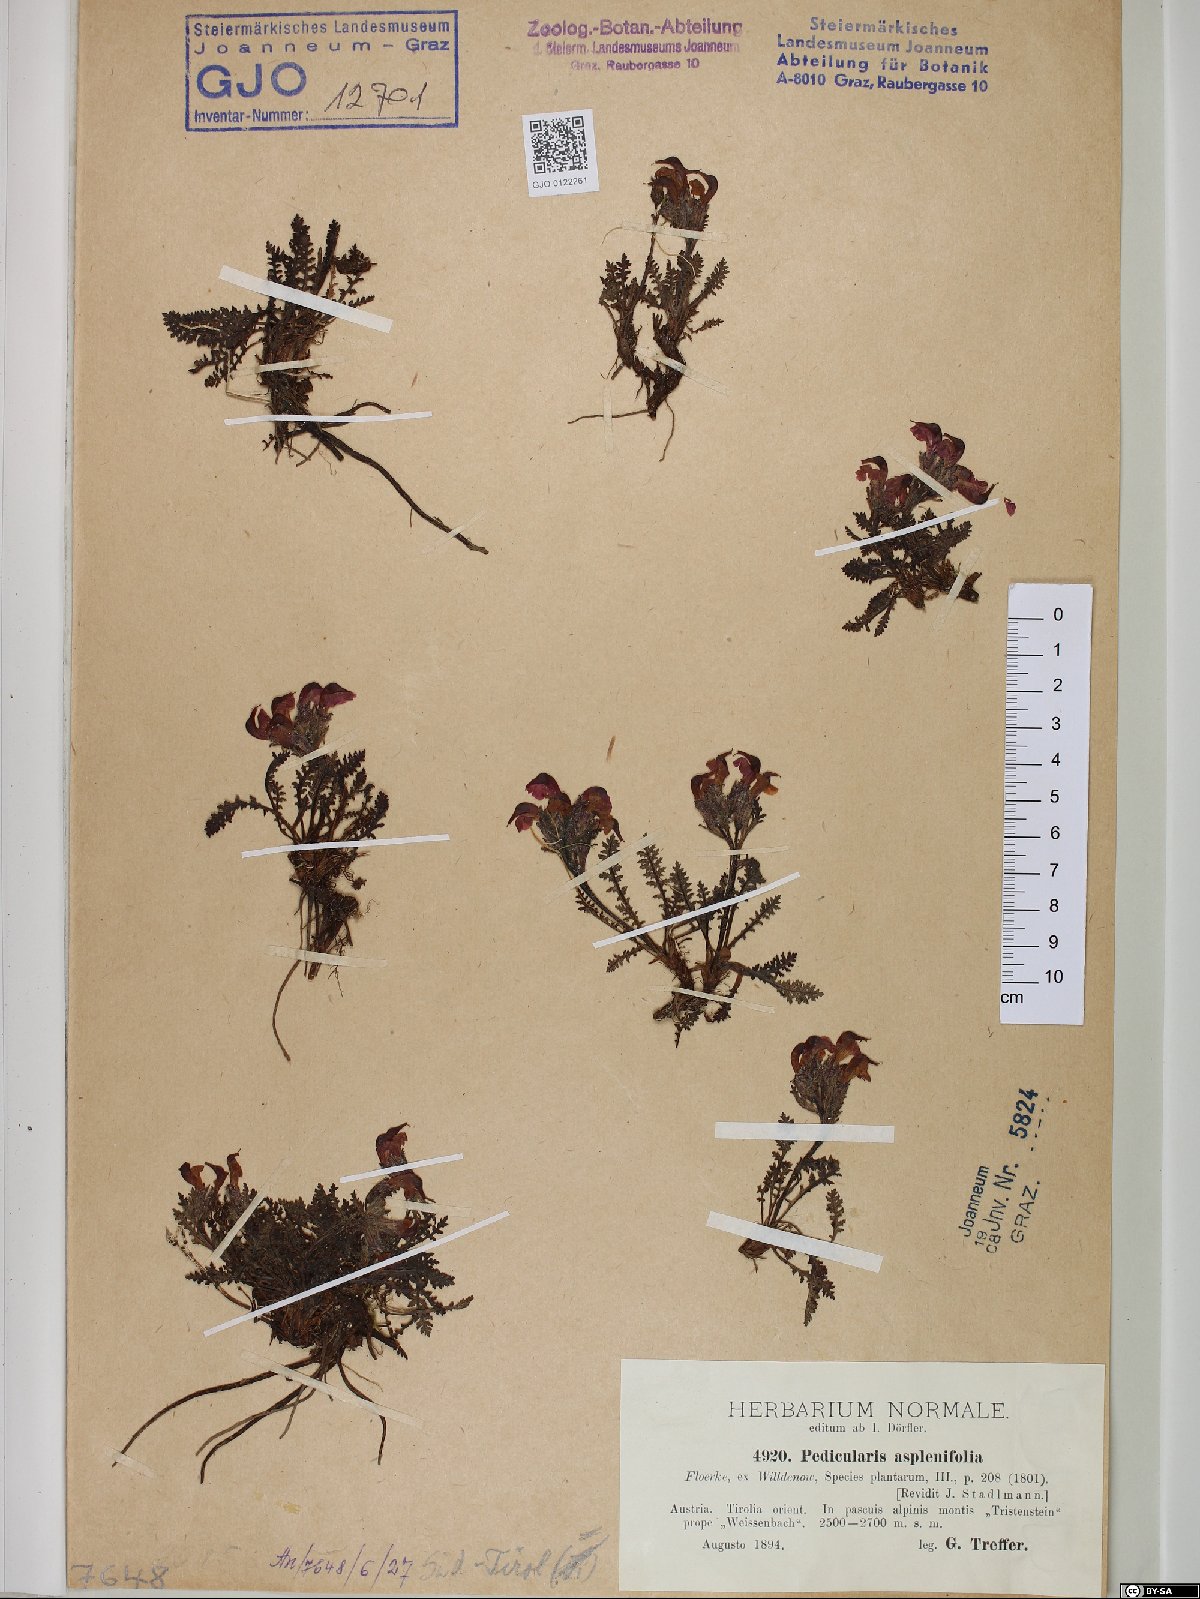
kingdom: Plantae
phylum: Tracheophyta
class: Magnoliopsida
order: Lamiales
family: Orobanchaceae
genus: Pedicularis
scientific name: Pedicularis asplenifolia
